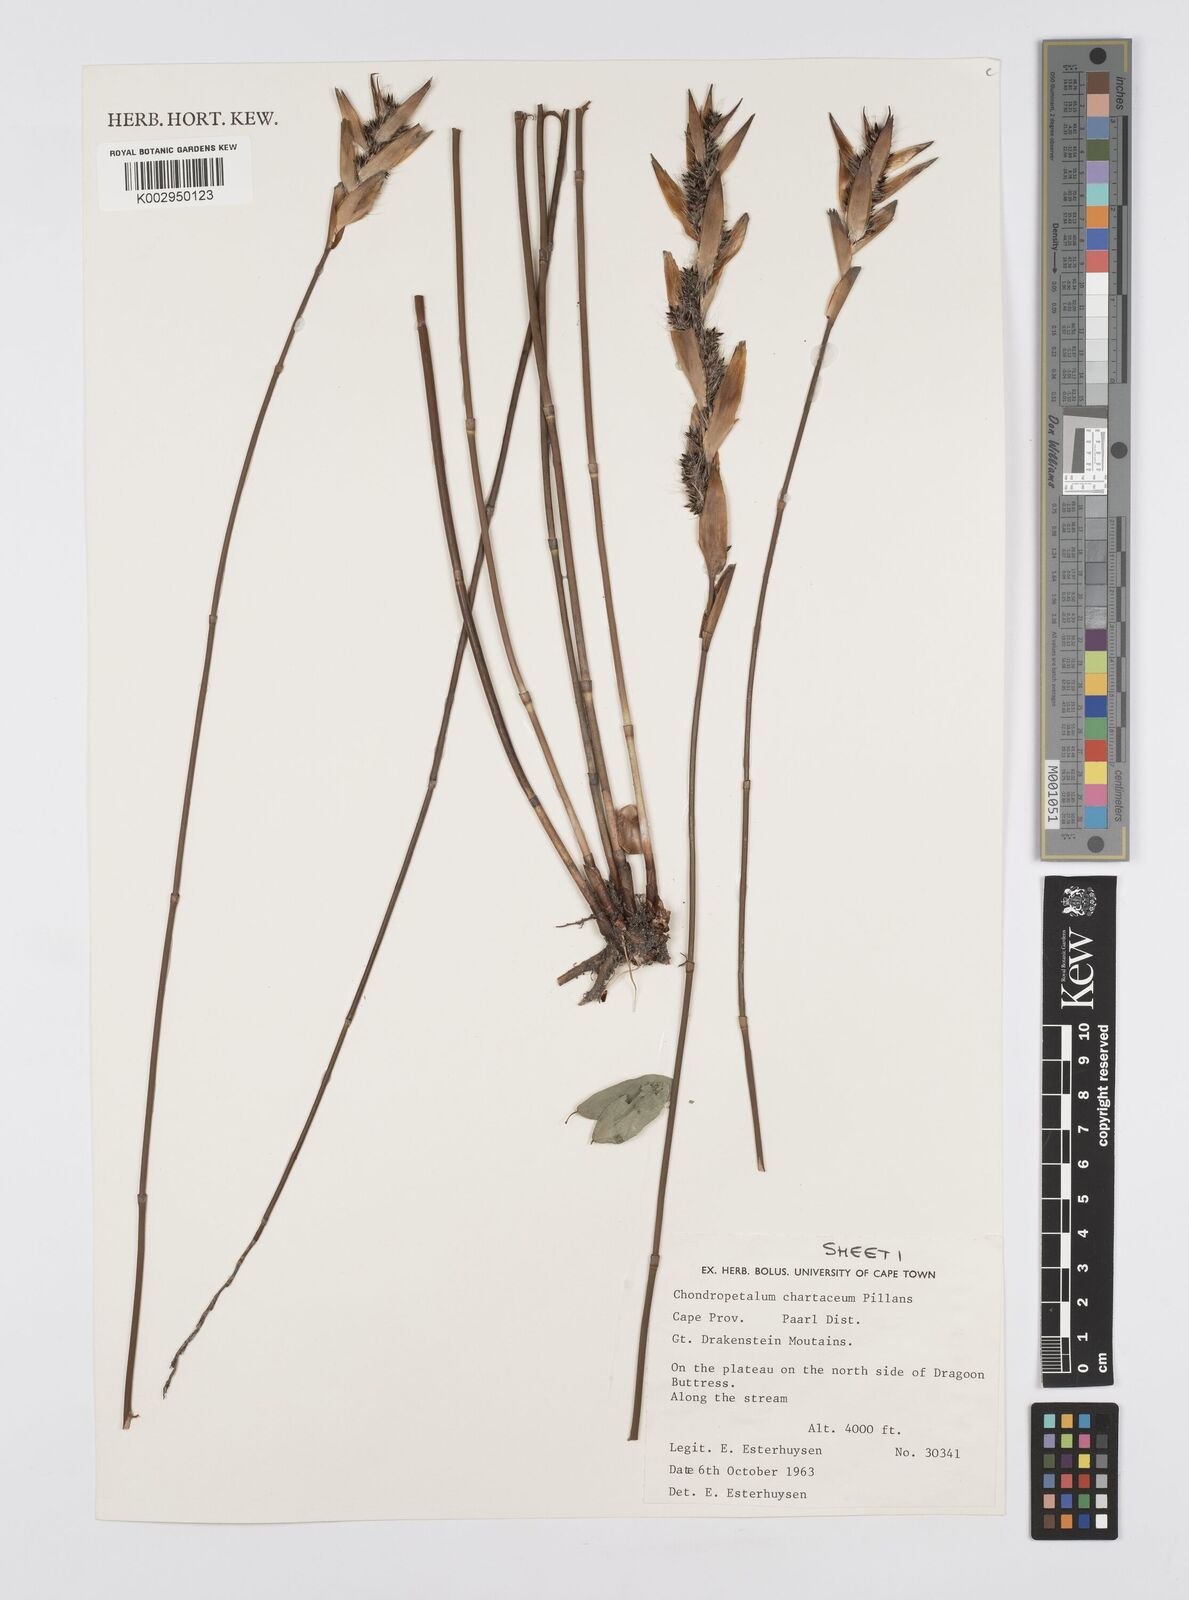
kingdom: Plantae
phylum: Tracheophyta
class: Liliopsida
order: Poales
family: Restionaceae
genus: Askidiosperma
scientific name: Askidiosperma chartaceum
